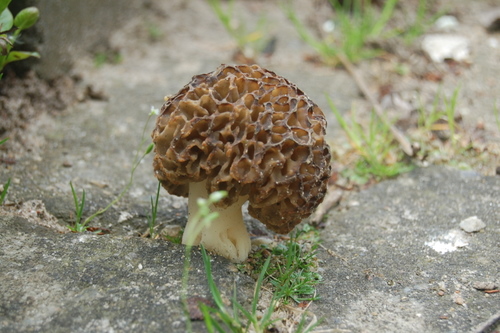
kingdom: Fungi
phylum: Ascomycota
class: Pezizomycetes
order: Pezizales
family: Morchellaceae
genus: Morchella
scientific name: Morchella esculenta
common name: spiselig morkel
